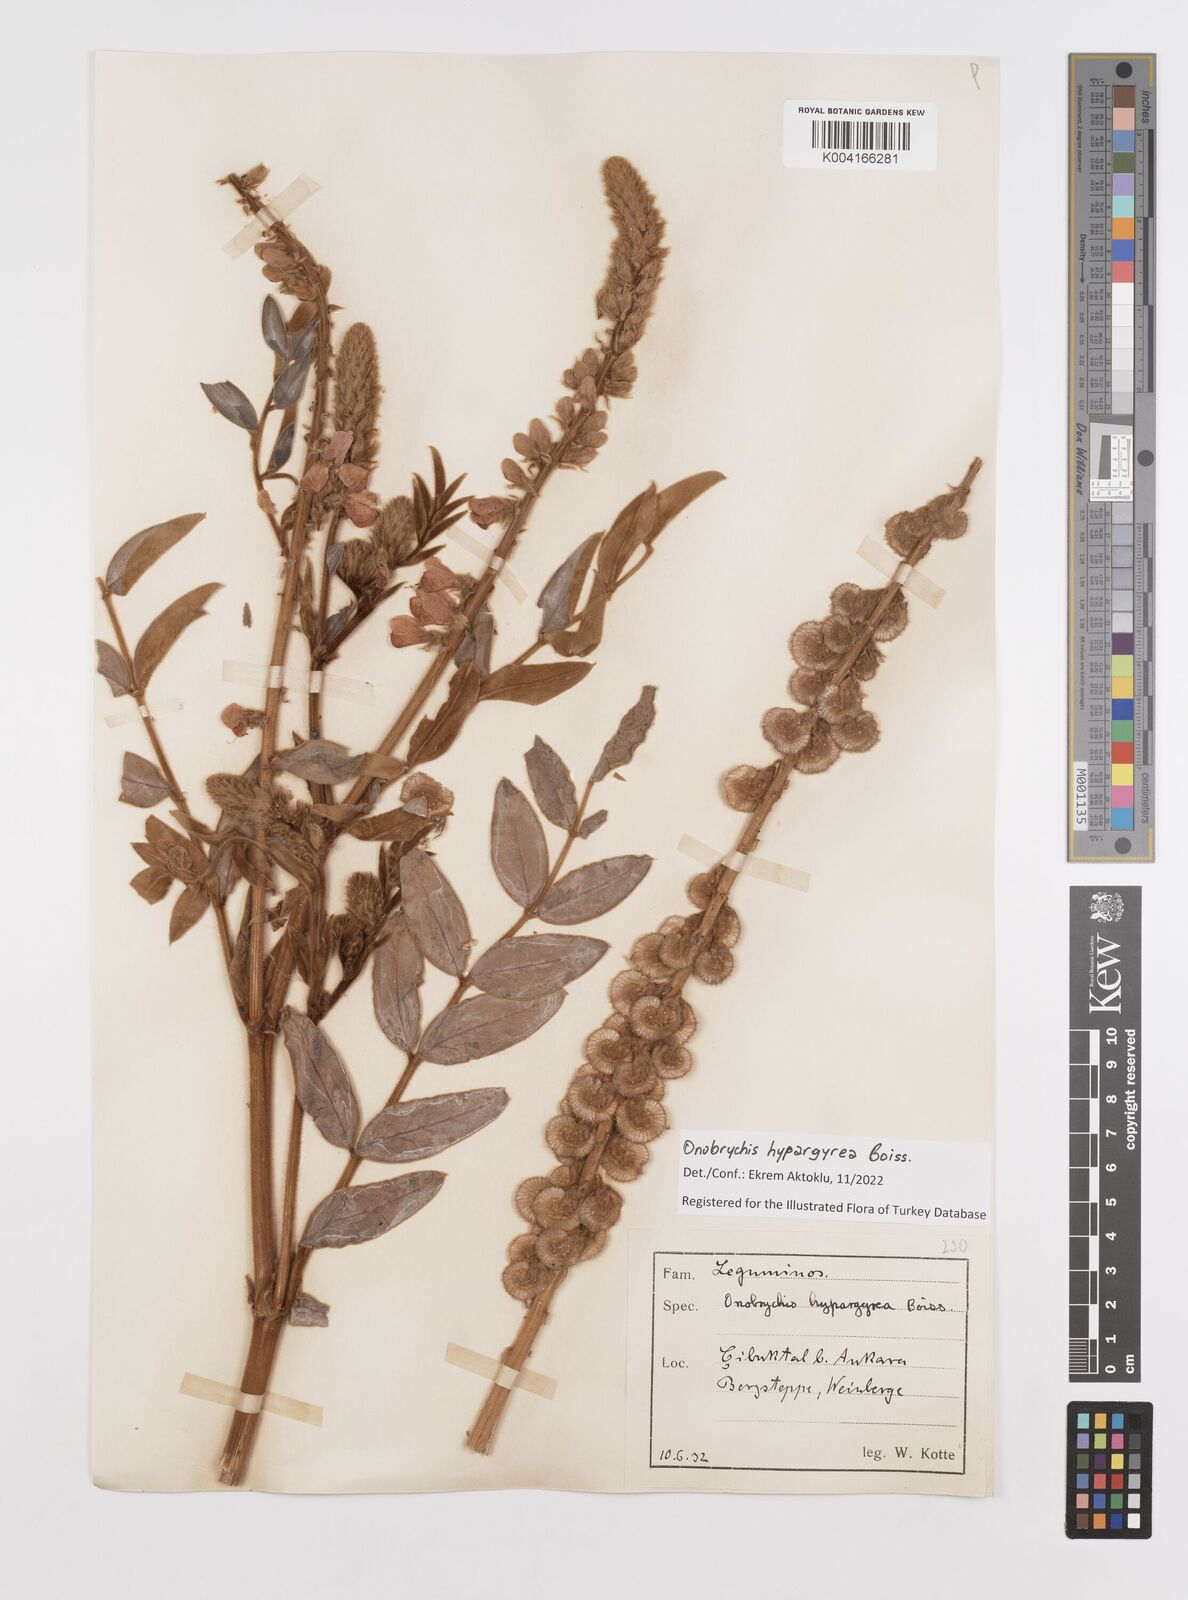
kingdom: Plantae
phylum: Tracheophyta
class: Magnoliopsida
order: Fabales
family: Fabaceae
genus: Onobrychis
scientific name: Onobrychis hypargyrea
